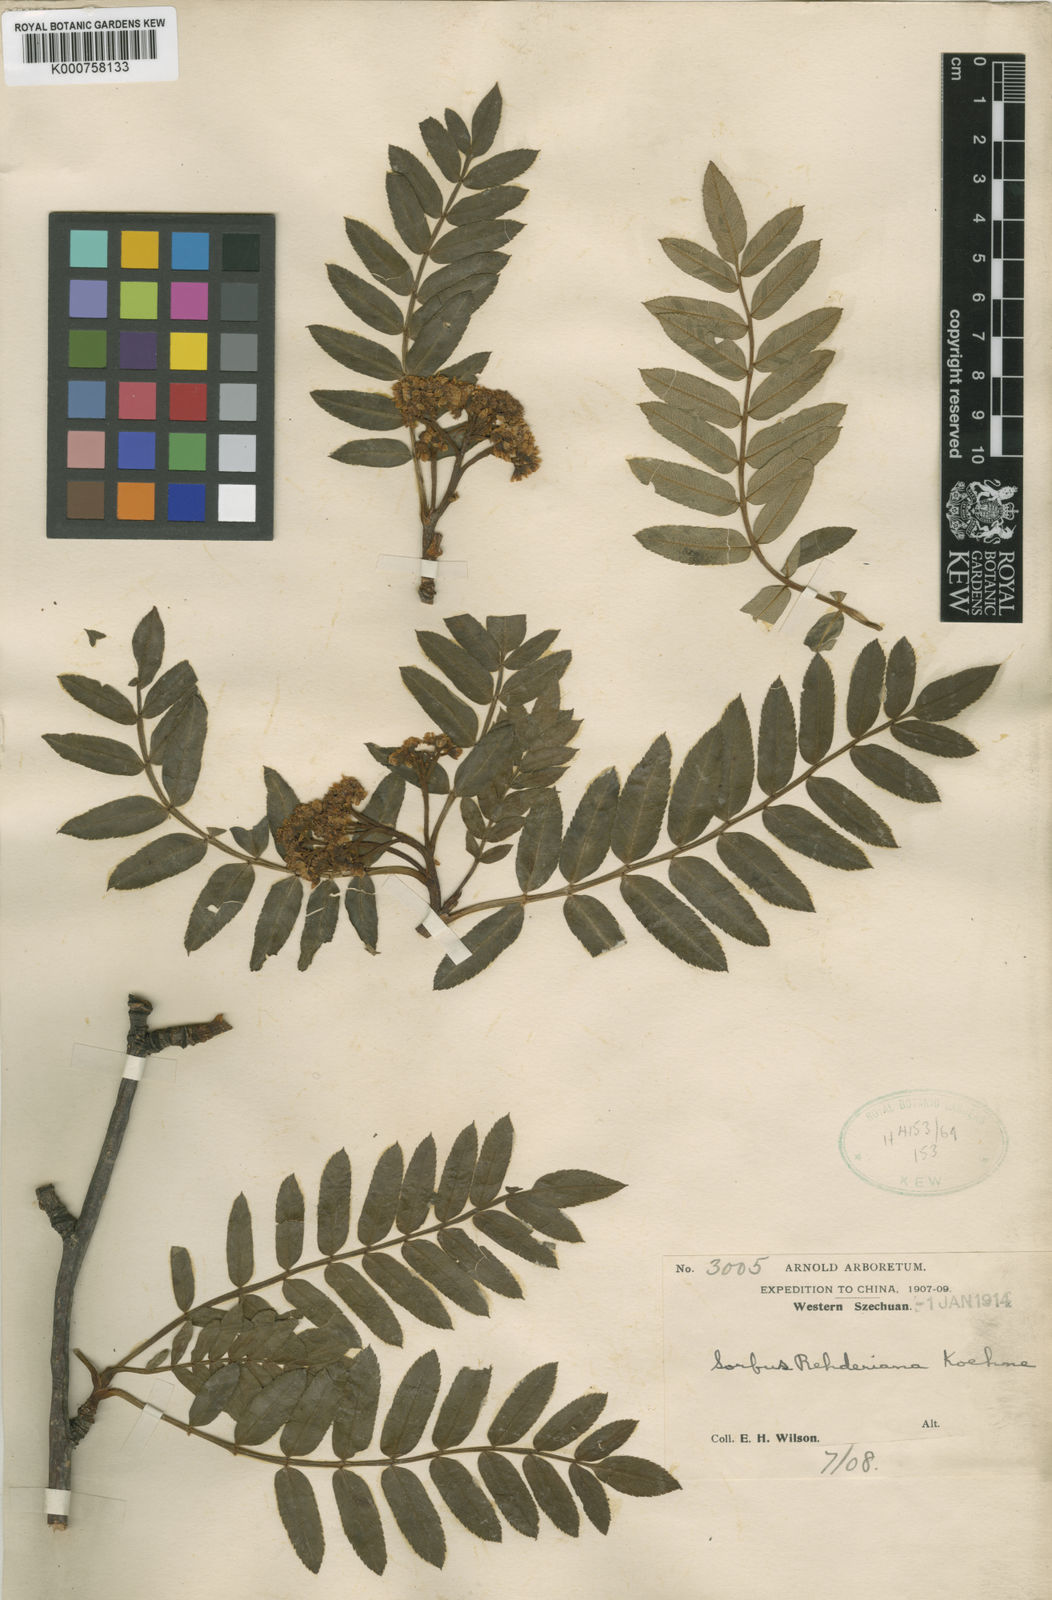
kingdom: Plantae
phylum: Tracheophyta
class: Magnoliopsida
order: Rosales
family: Rosaceae
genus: Sorbus
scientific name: Sorbus rehderiana
